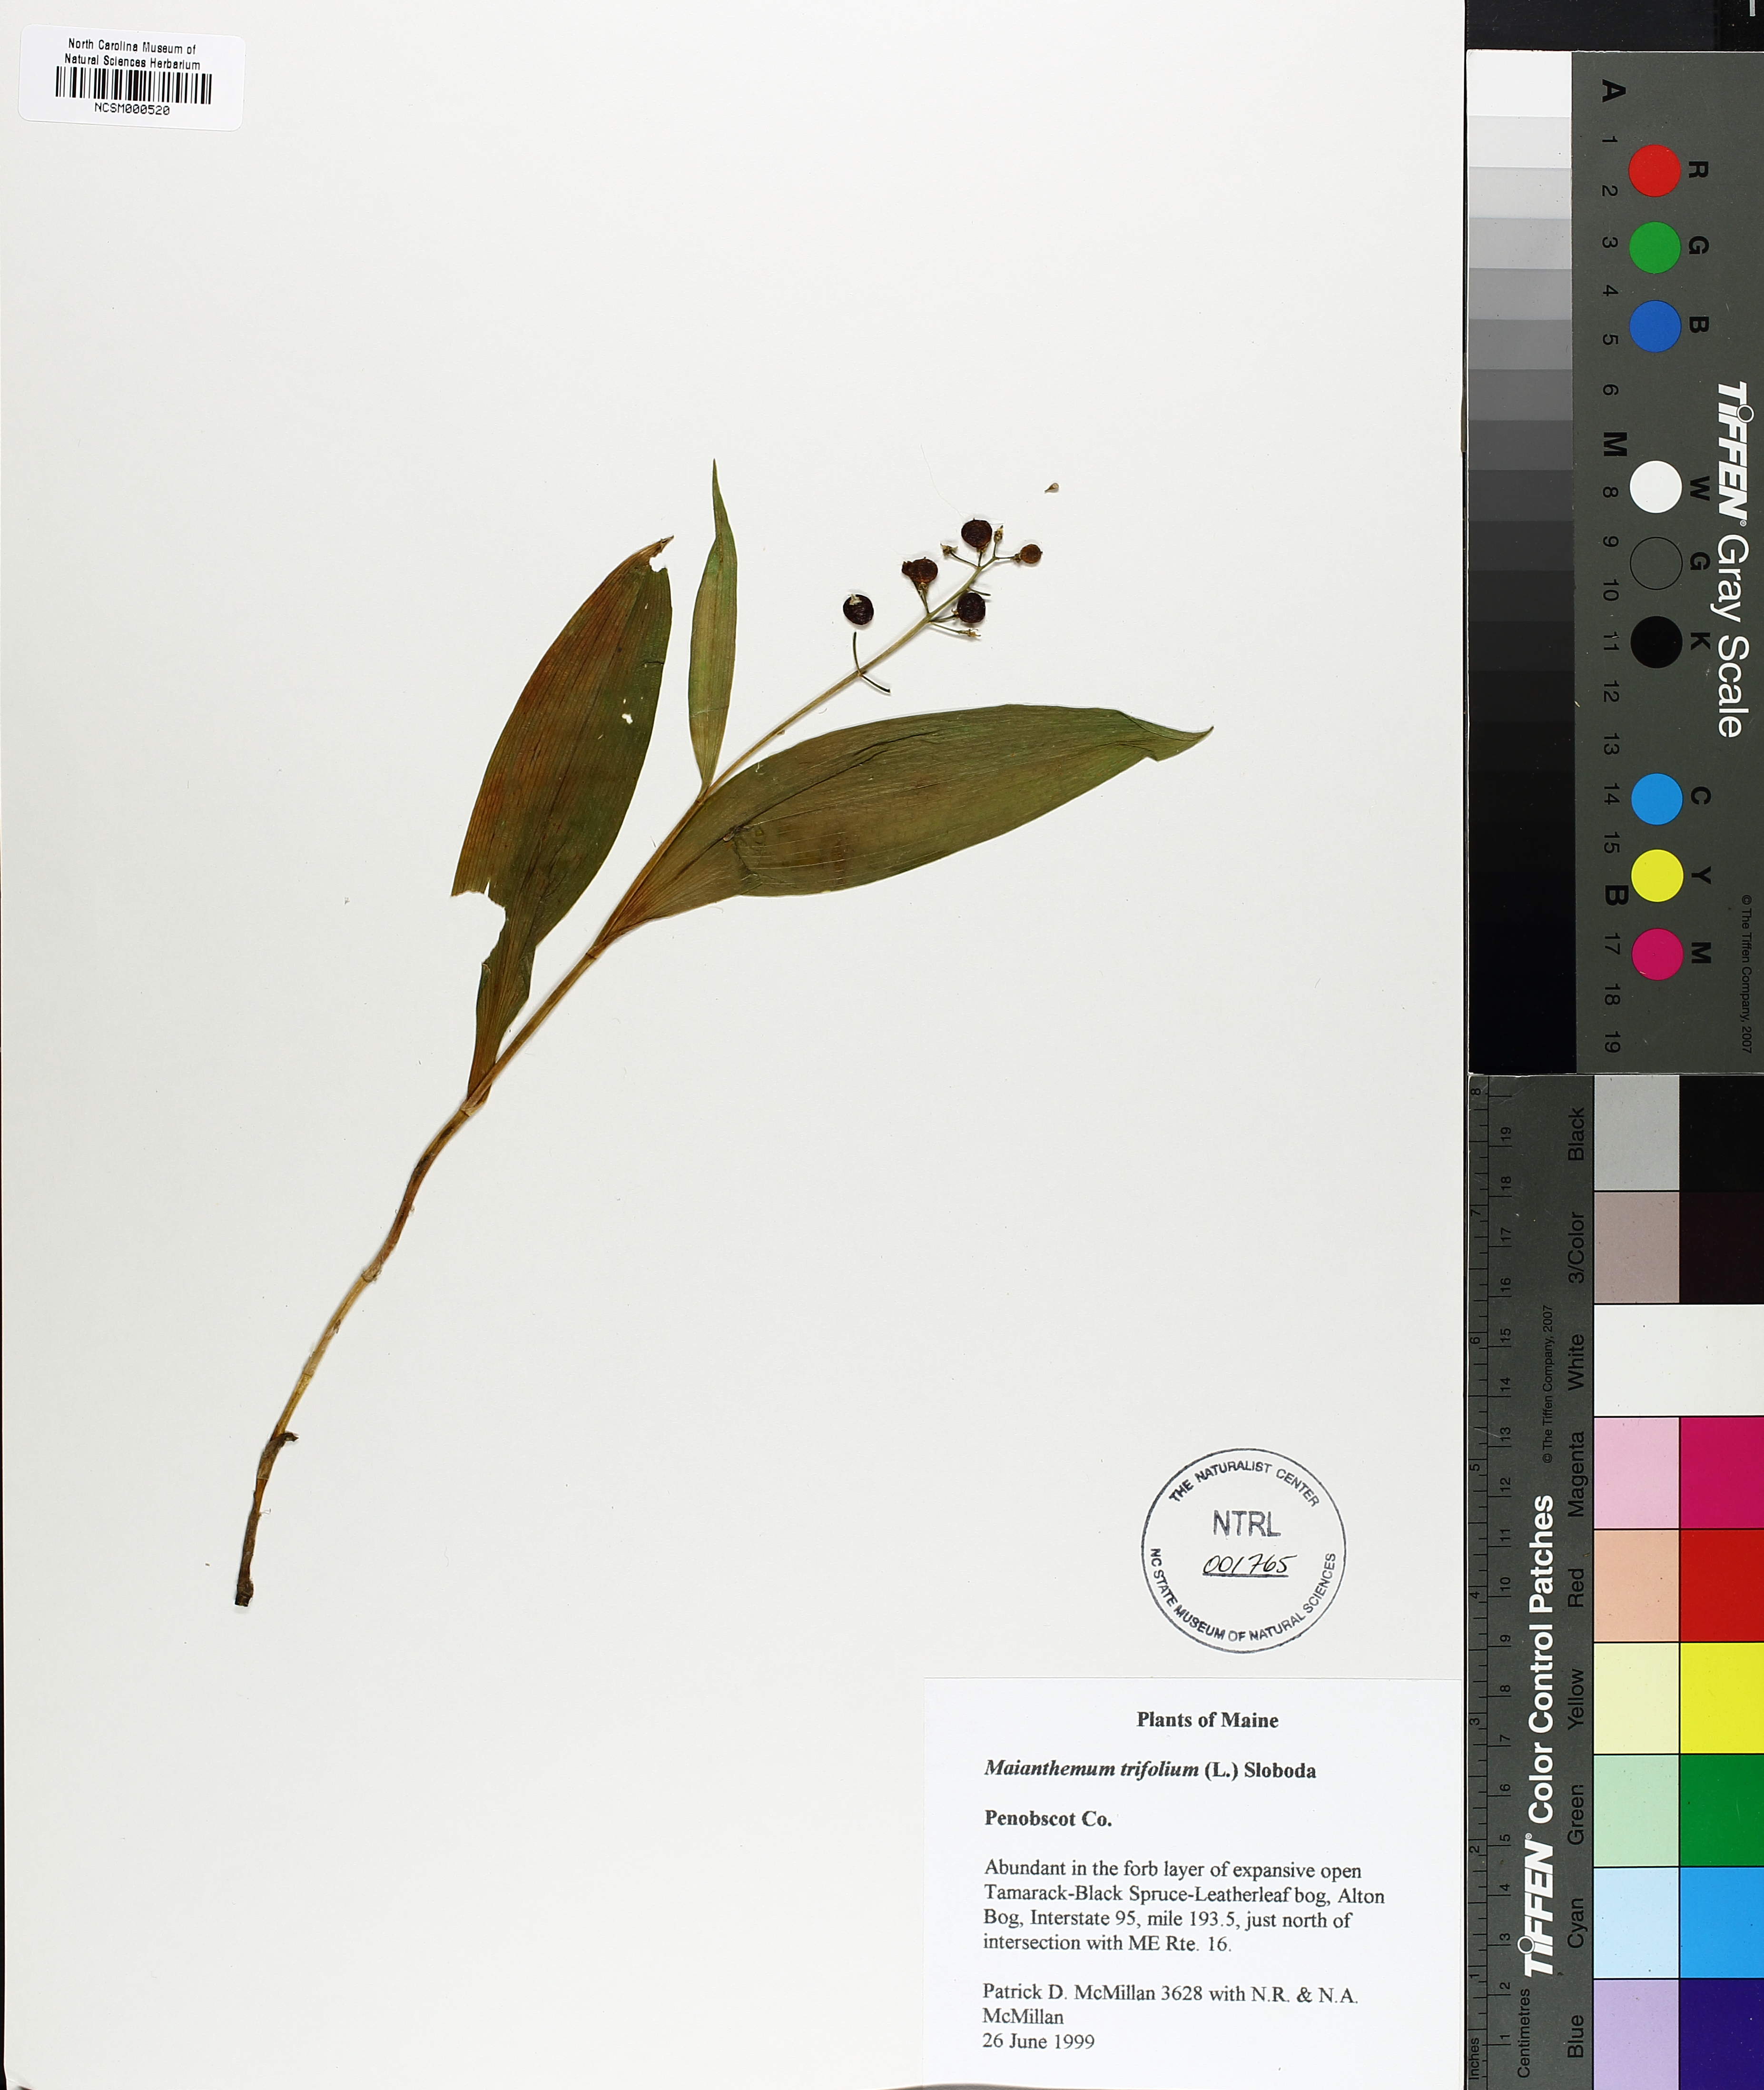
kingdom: Plantae
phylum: Tracheophyta
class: Liliopsida
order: Asparagales
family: Asparagaceae
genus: Maianthemum
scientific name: Maianthemum trifolium
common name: Swamp false solomon's seal
